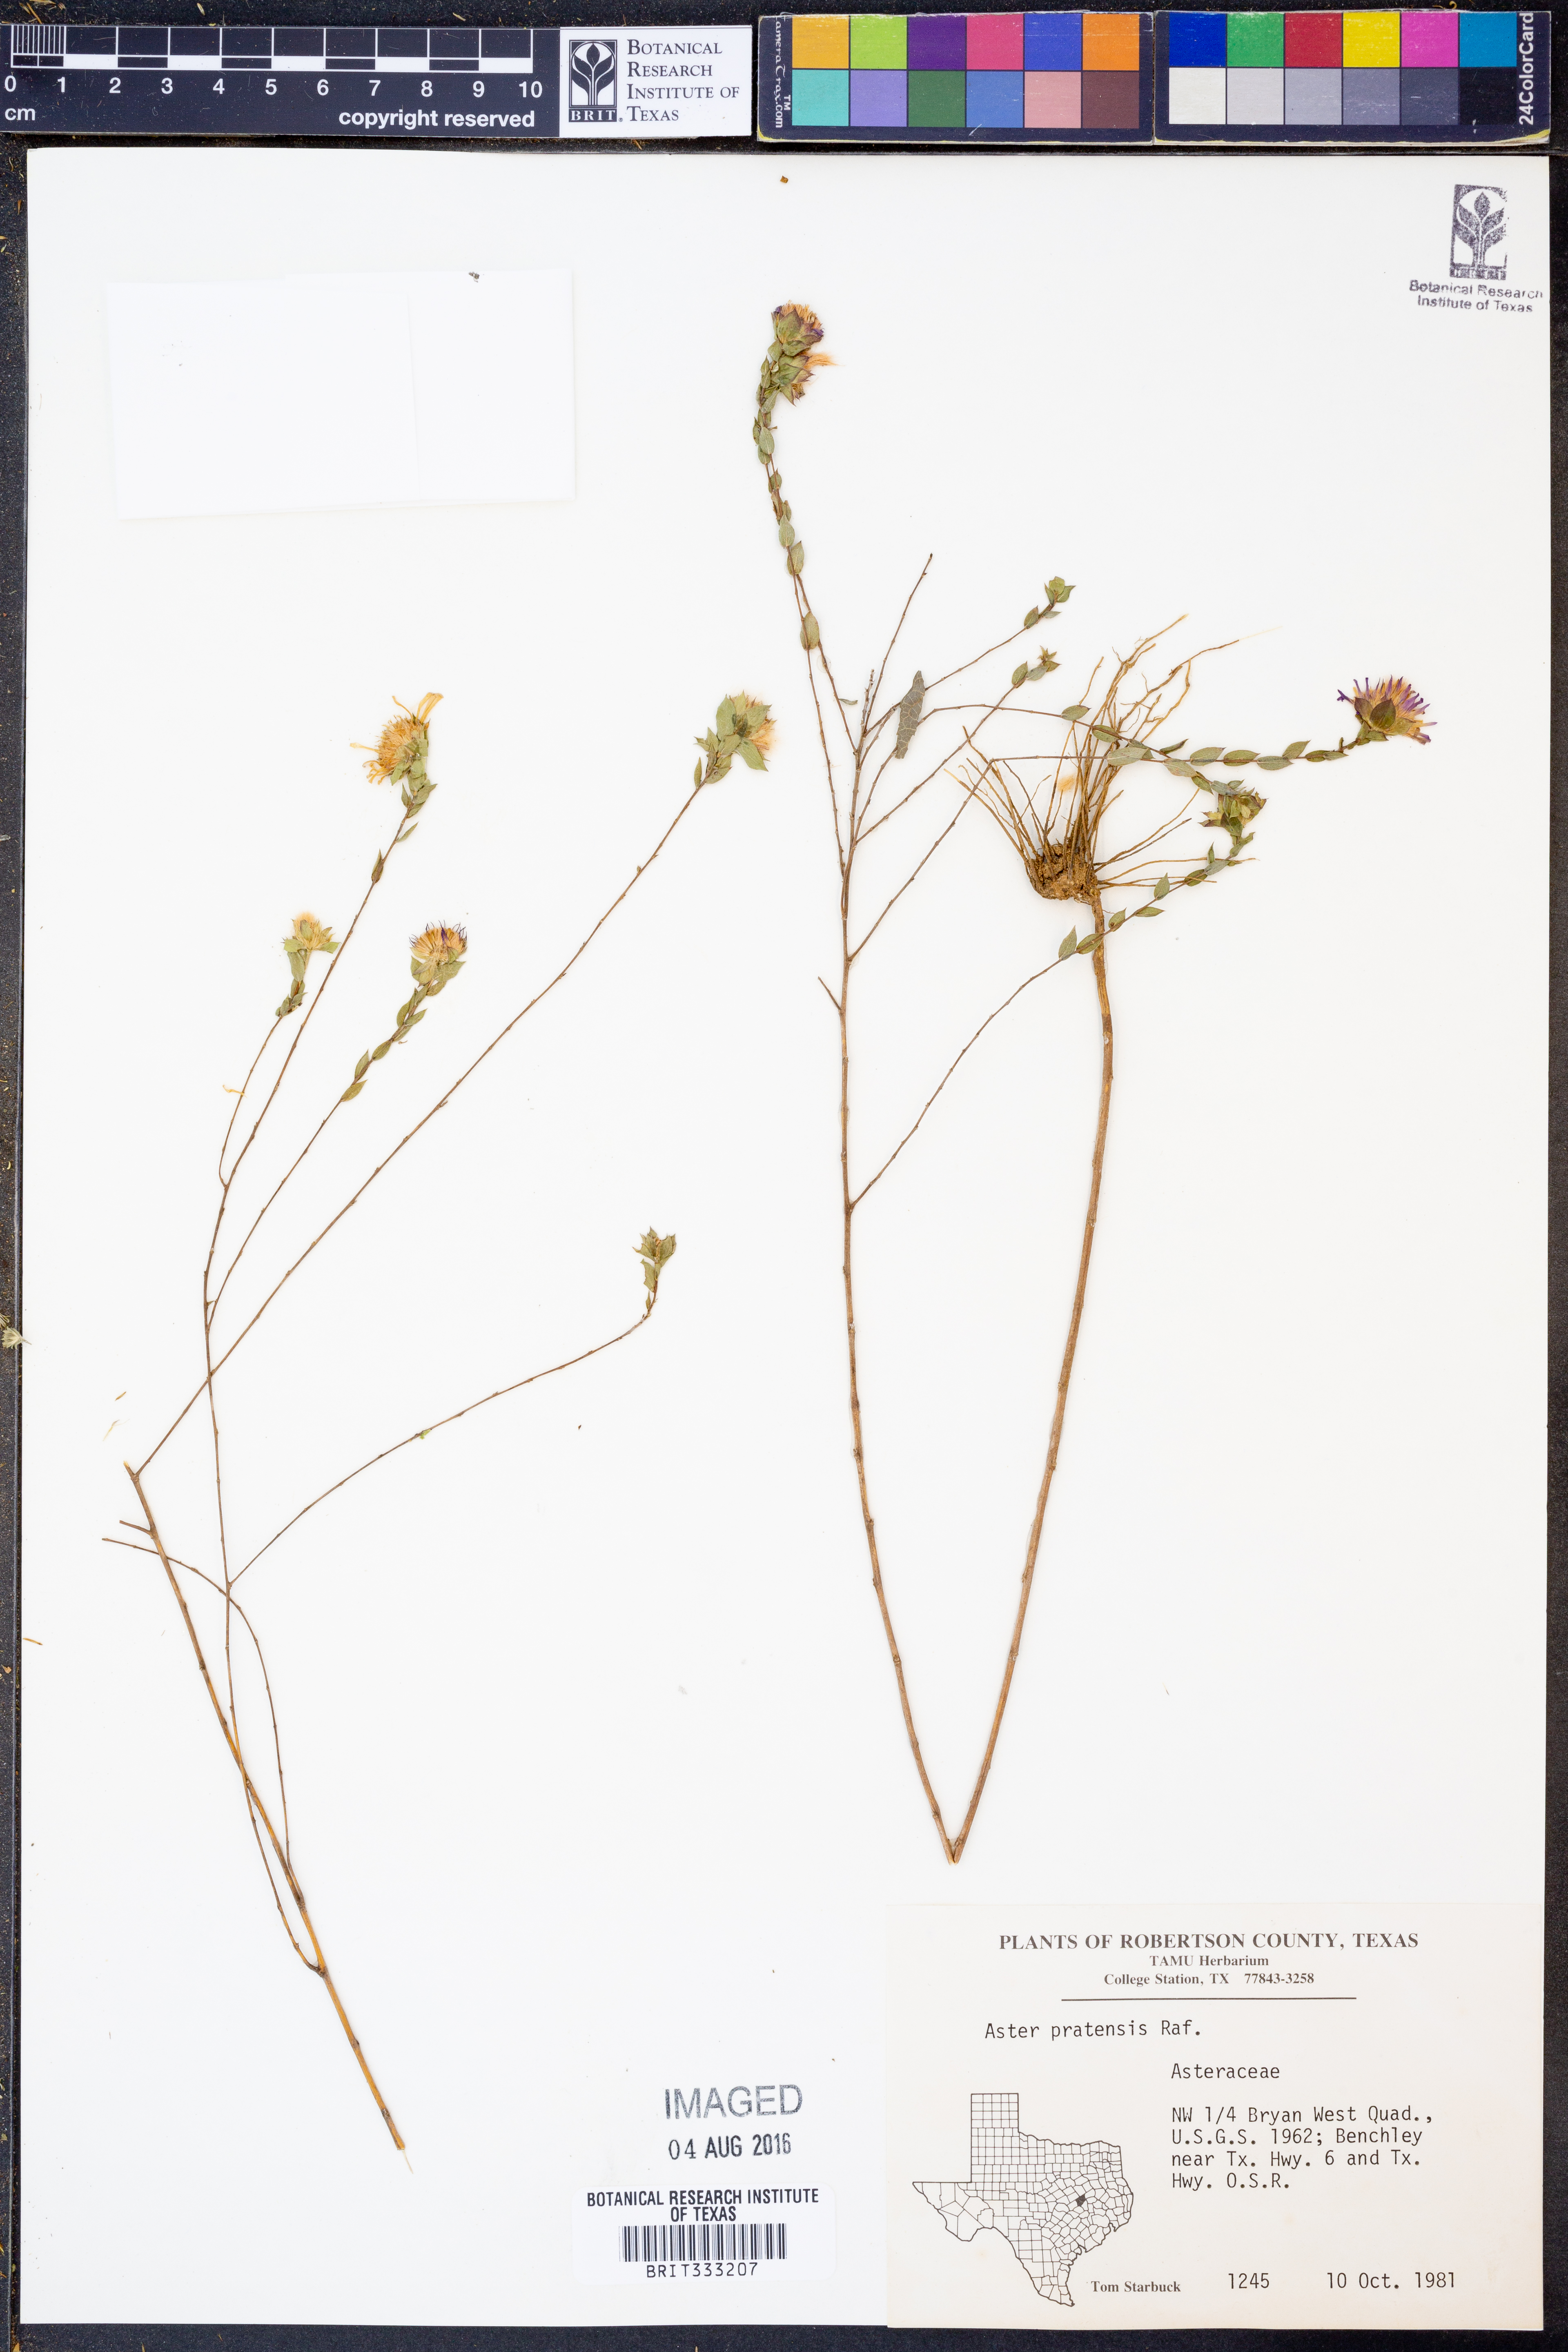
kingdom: Plantae
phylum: Tracheophyta
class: Magnoliopsida
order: Asterales
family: Asteraceae
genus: Symphyotrichum
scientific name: Symphyotrichum pratense
